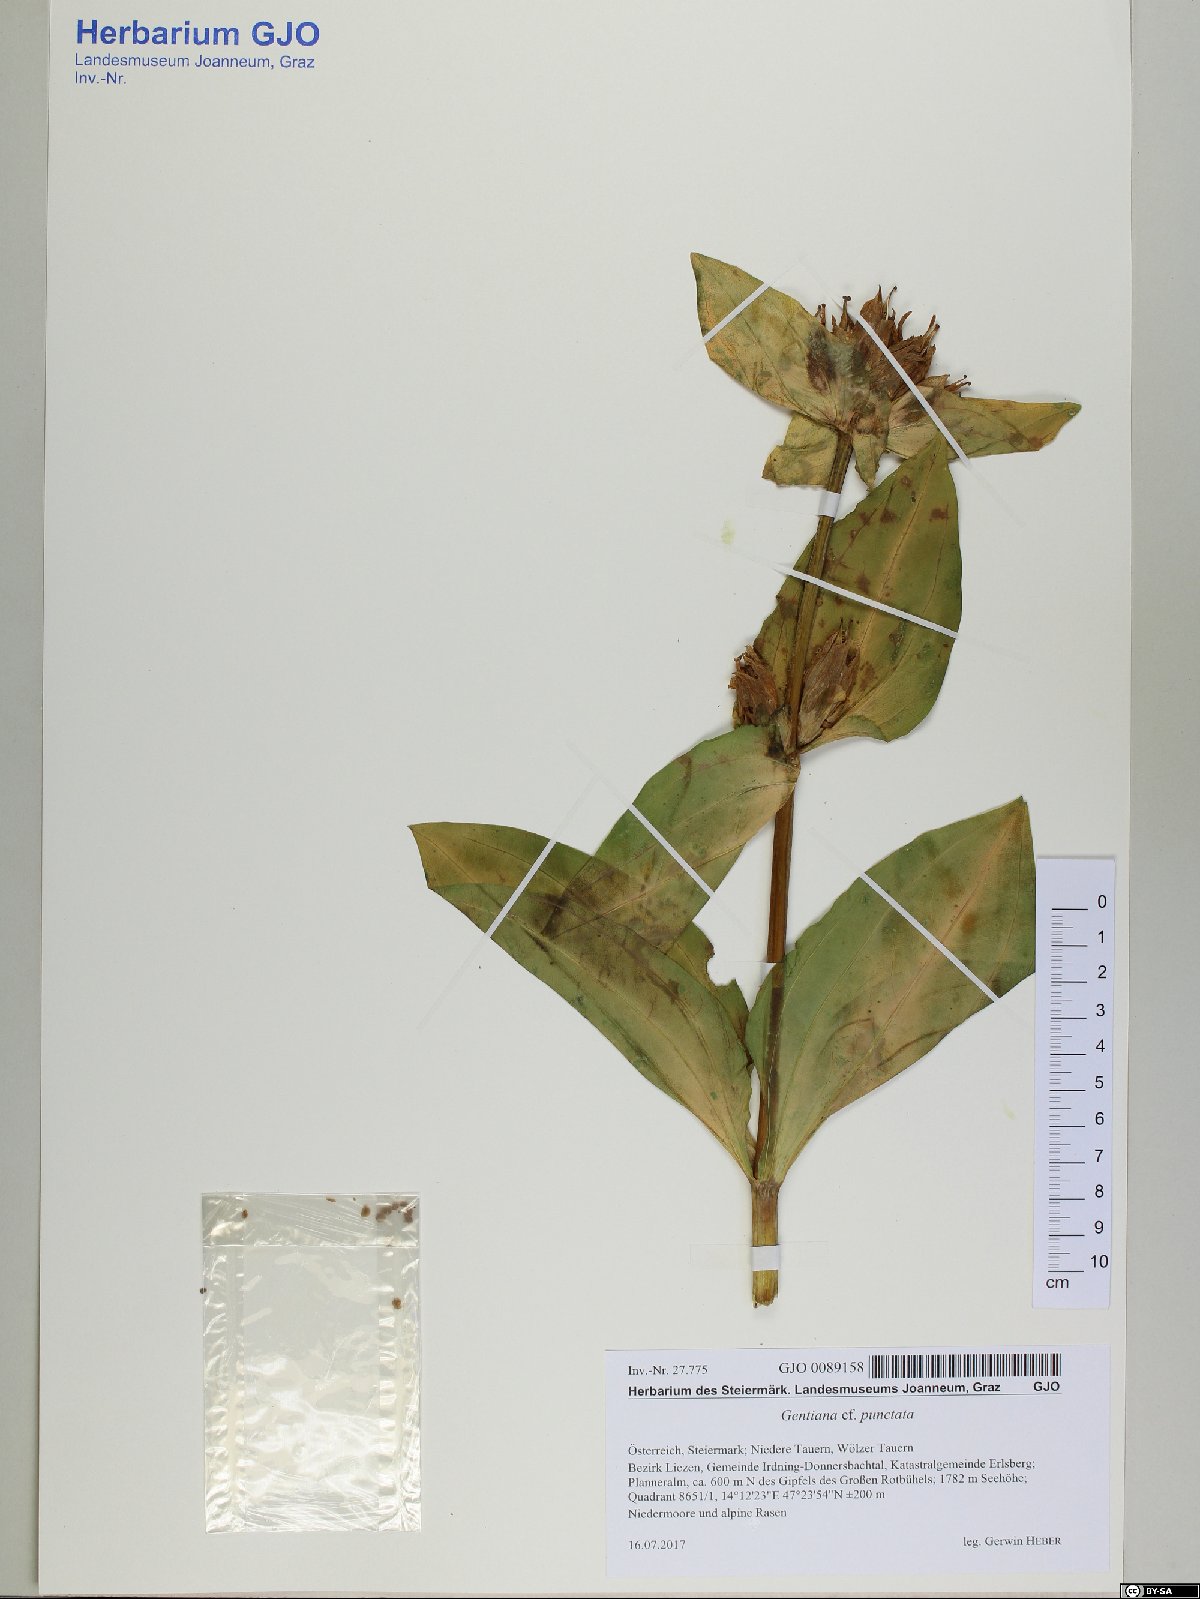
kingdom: Plantae
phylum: Tracheophyta
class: Magnoliopsida
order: Gentianales
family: Gentianaceae
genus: Gentiana
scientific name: Gentiana punctata
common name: Spotted gentian
